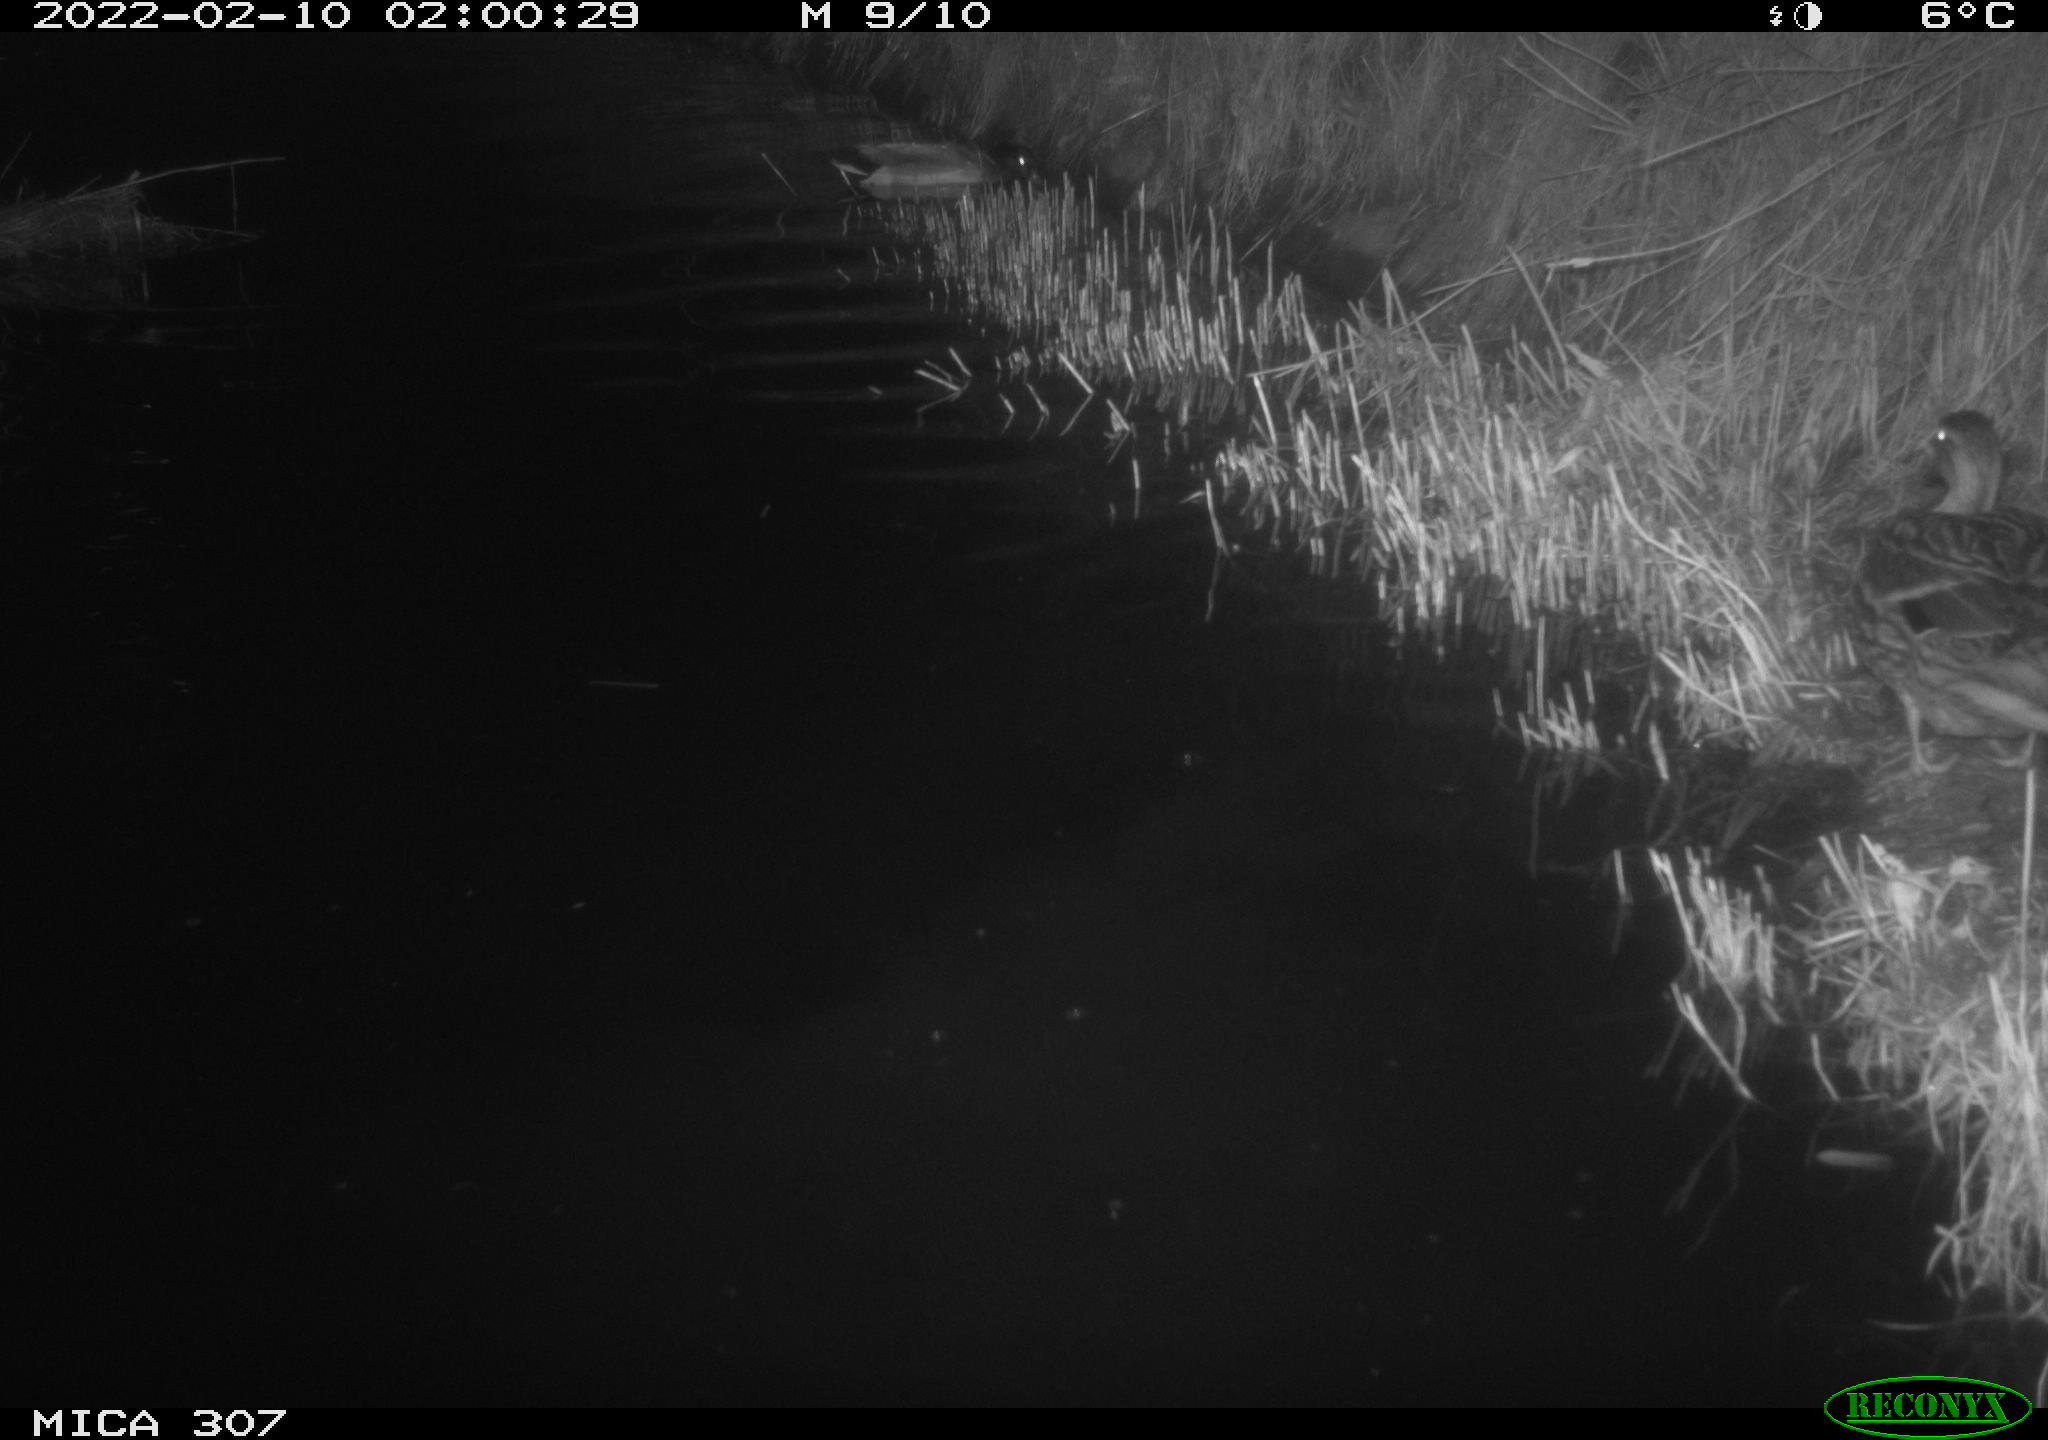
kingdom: Animalia
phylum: Chordata
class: Mammalia
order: Rodentia
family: Cricetidae
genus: Ondatra
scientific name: Ondatra zibethicus
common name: Muskrat
